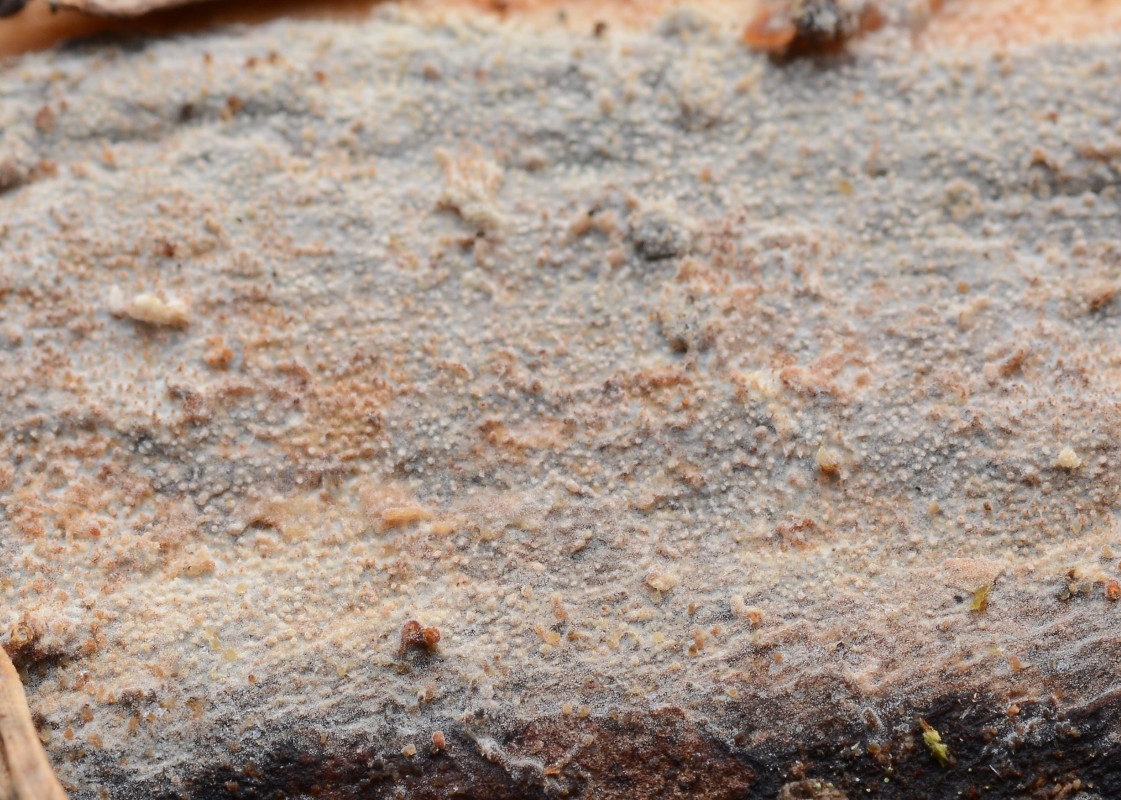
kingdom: Fungi
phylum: Basidiomycota
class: Agaricomycetes
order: Hymenochaetales
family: Rickenellaceae
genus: Resinicium
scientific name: Resinicium bicolor
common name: almindelig vokstand
